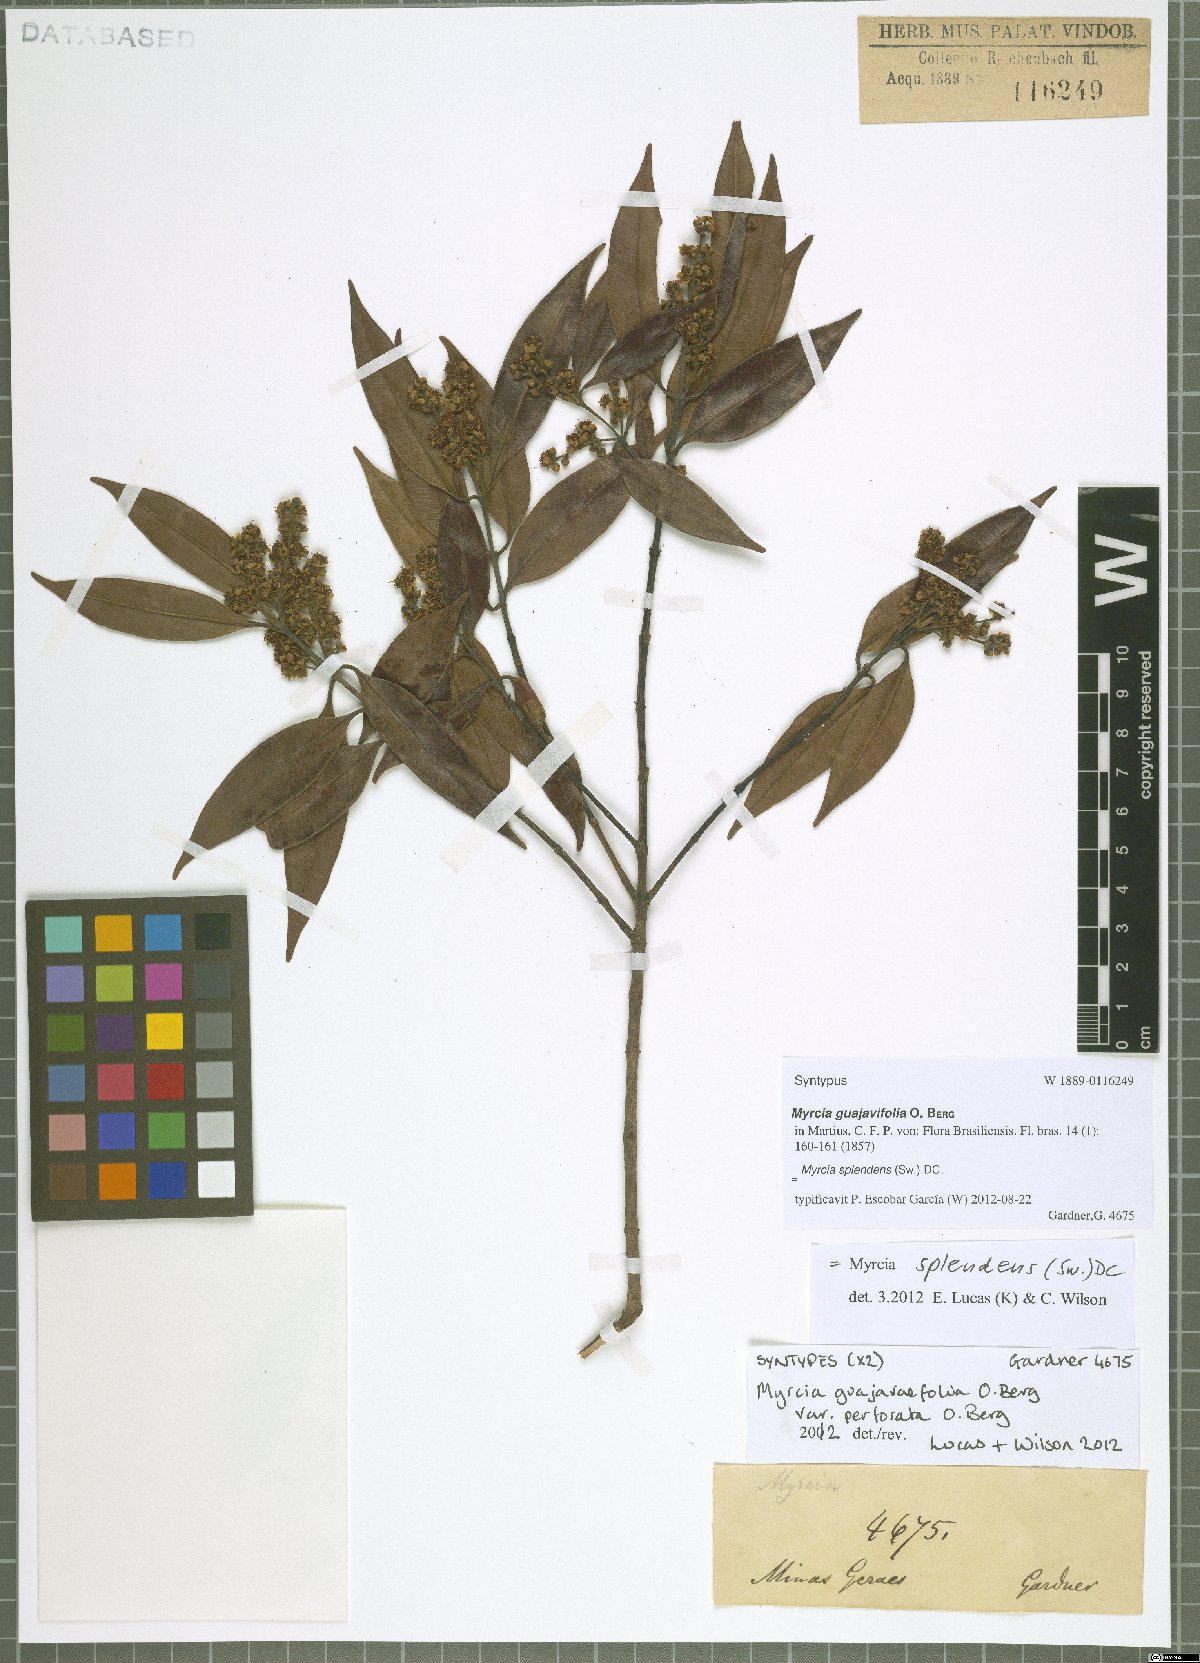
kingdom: Plantae
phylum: Tracheophyta
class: Magnoliopsida
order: Myrtales
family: Myrtaceae
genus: Myrcia
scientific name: Myrcia splendens
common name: Surinam cherry
